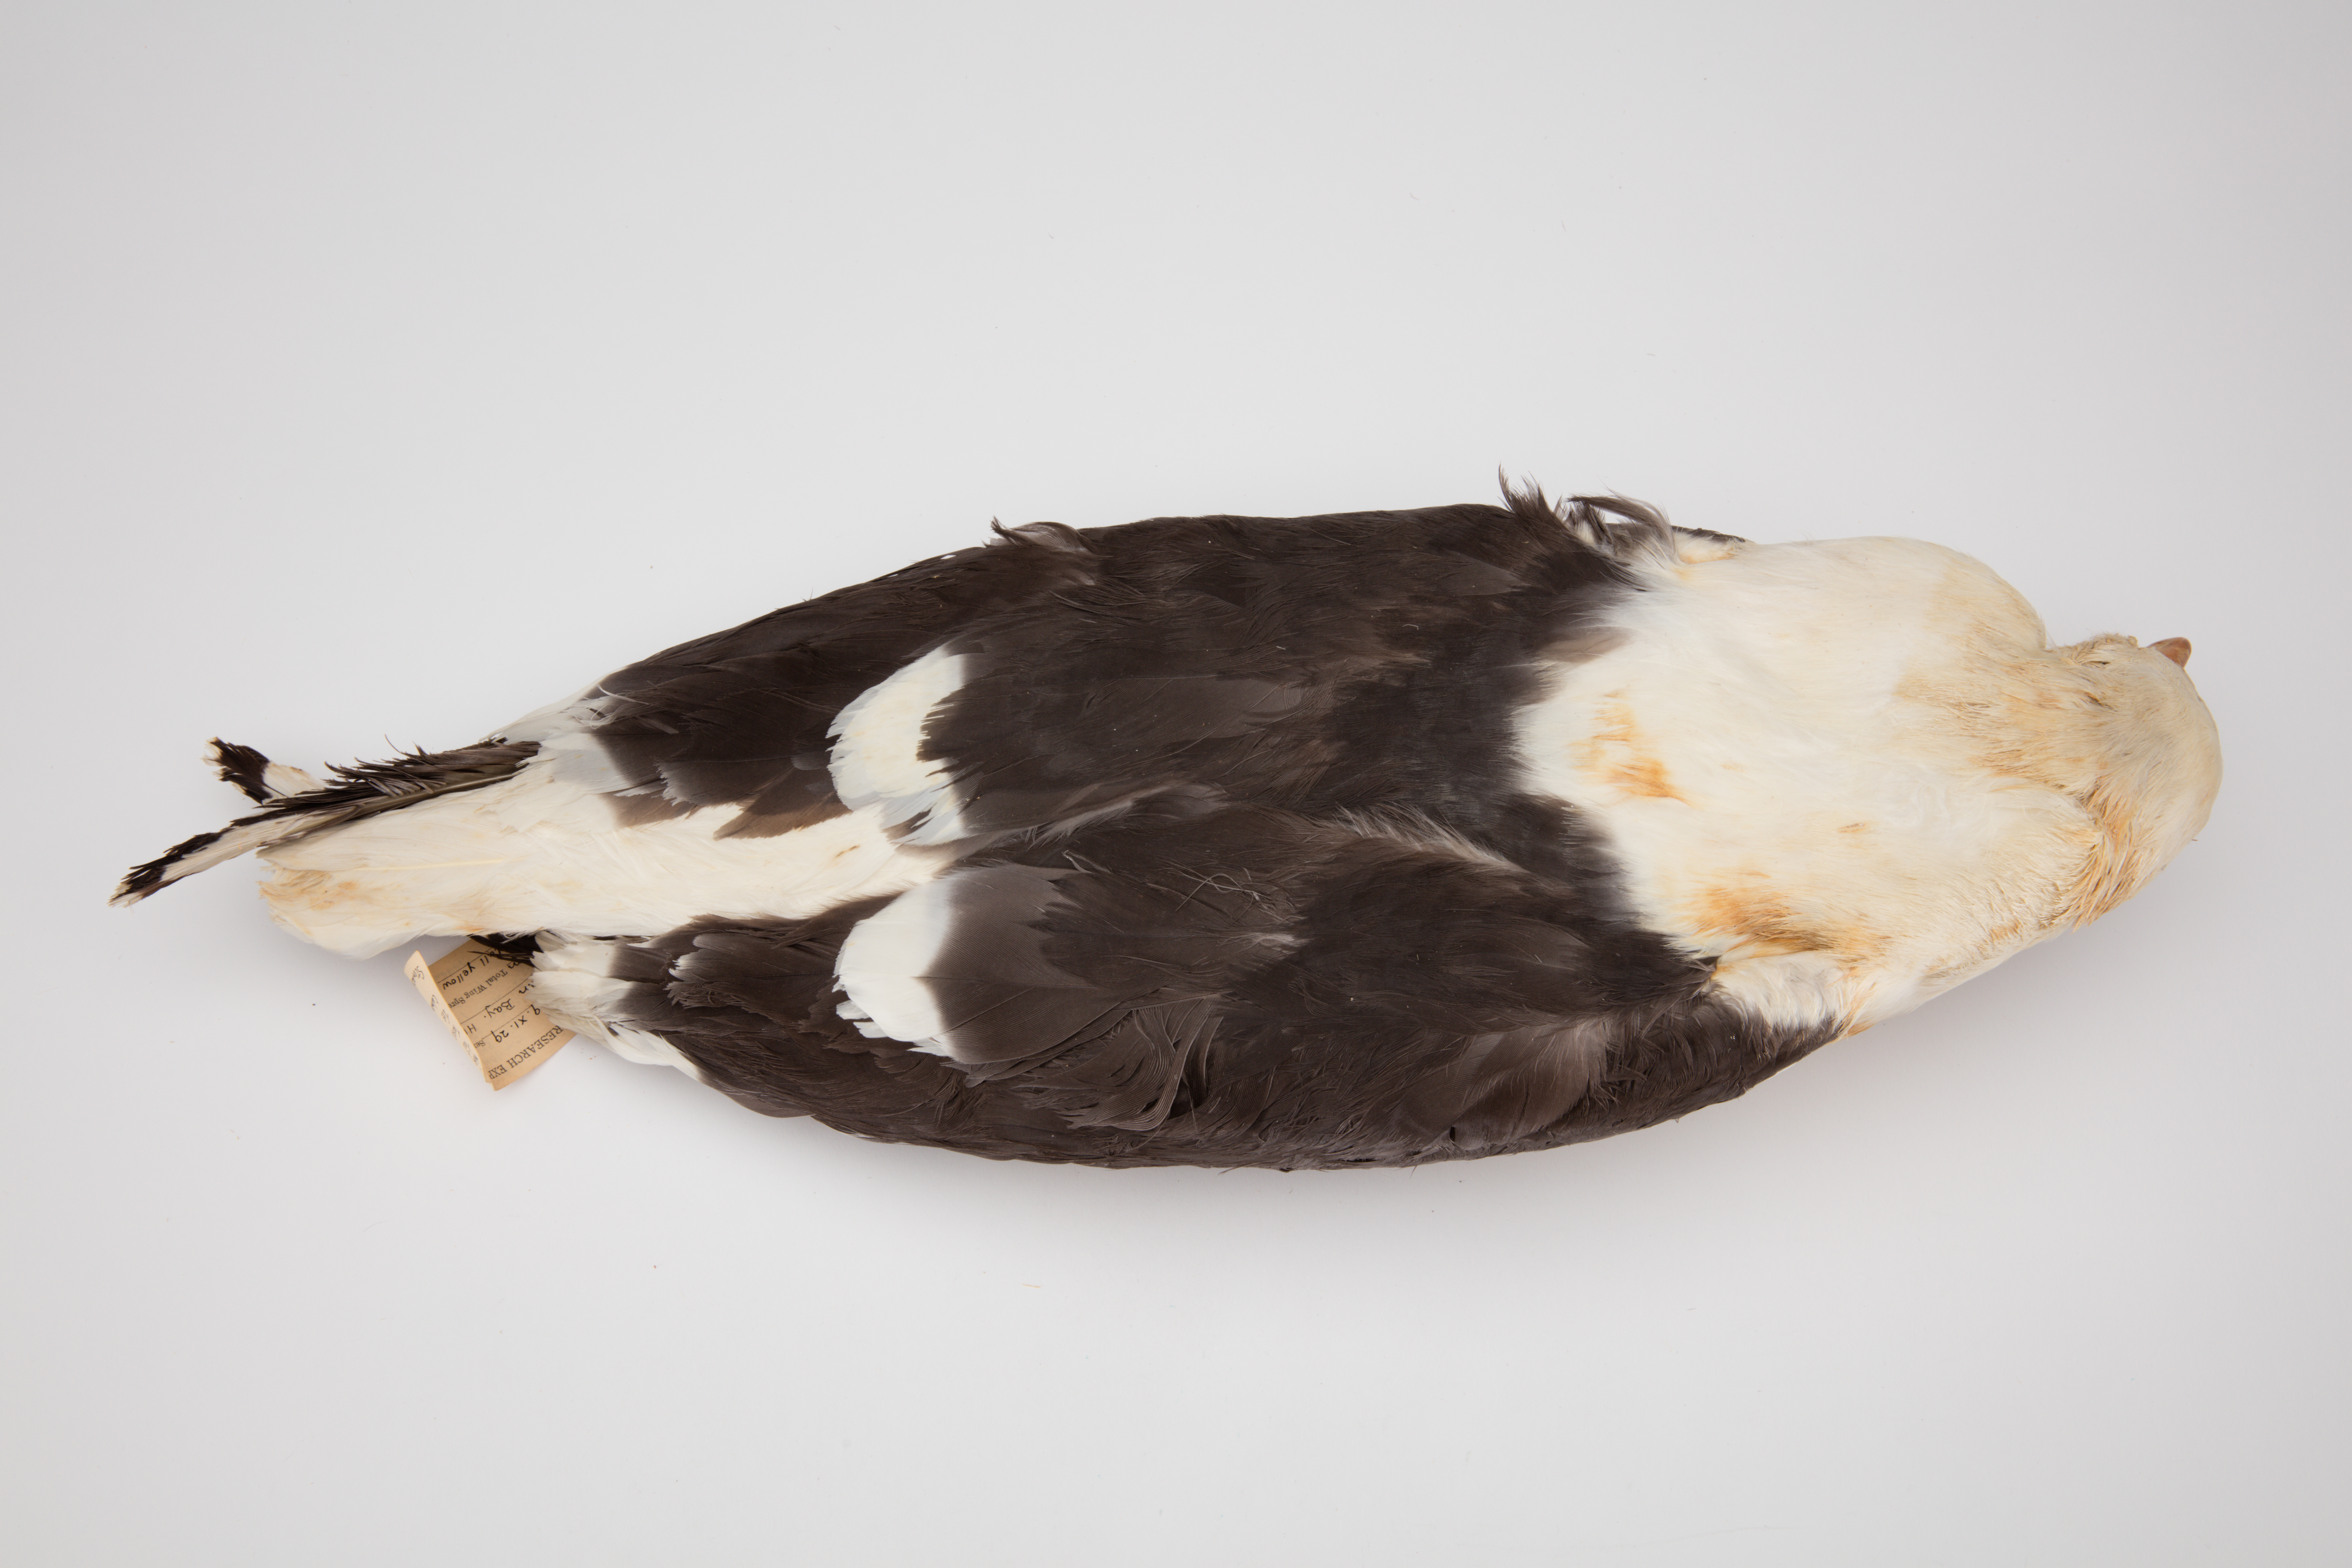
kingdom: Animalia
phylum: Chordata
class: Aves
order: Charadriiformes
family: Laridae
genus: Larus
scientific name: Larus dominicanus
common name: Kelp gull
